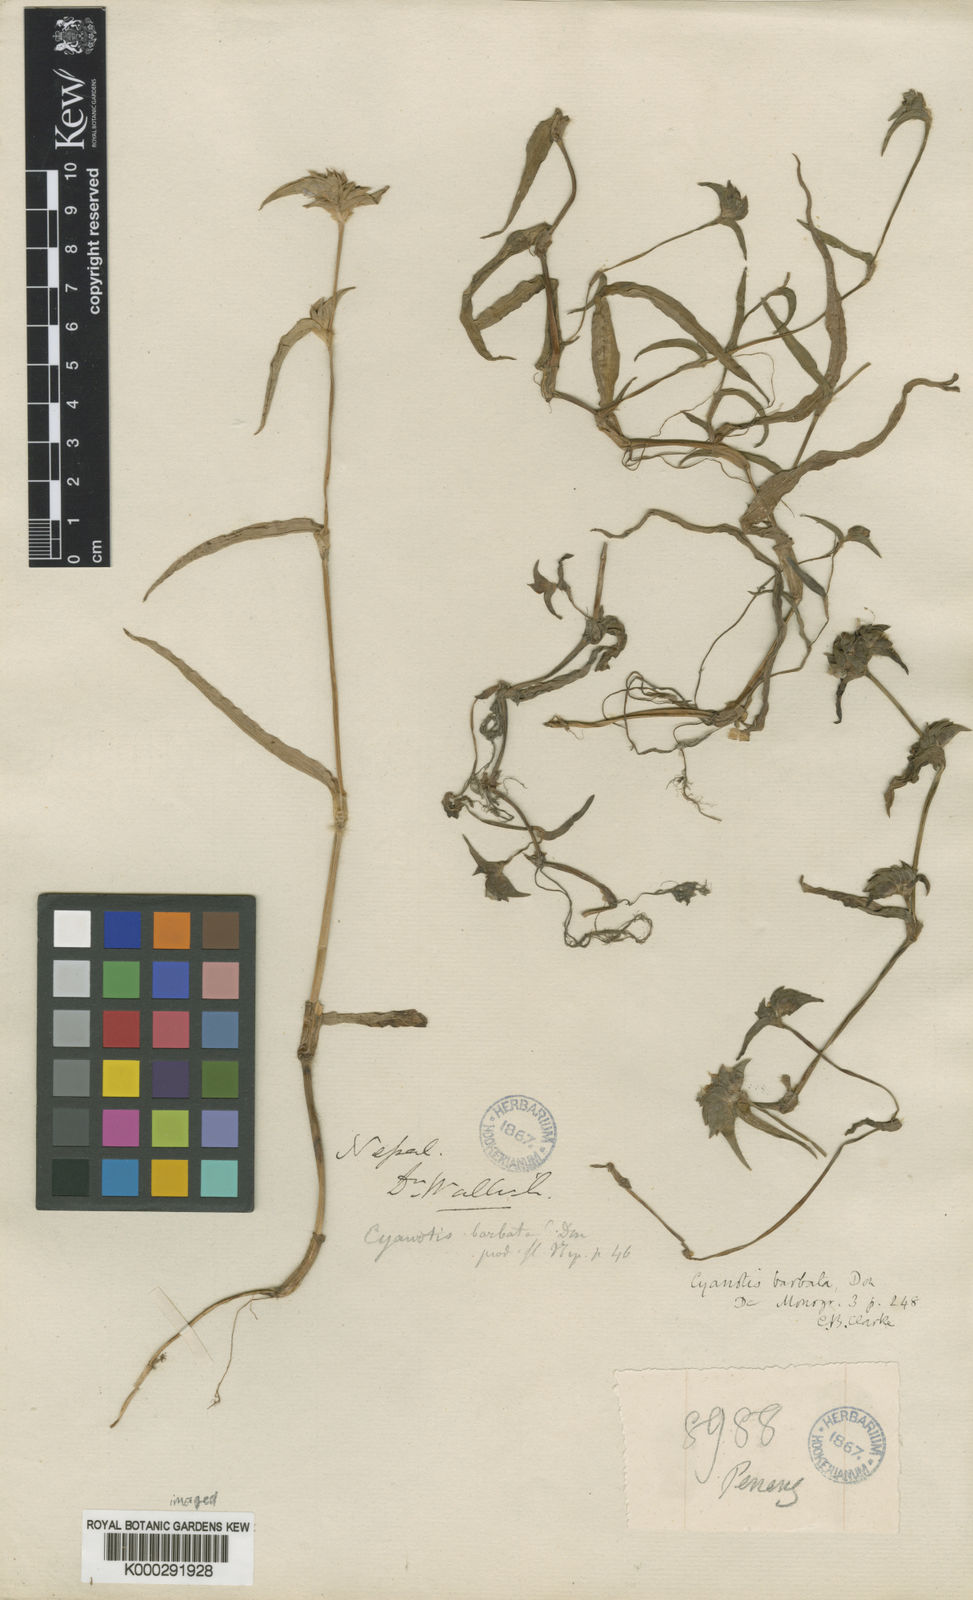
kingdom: Plantae
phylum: Tracheophyta
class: Liliopsida
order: Commelinales
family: Commelinaceae
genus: Cyanotis
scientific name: Cyanotis vaga
